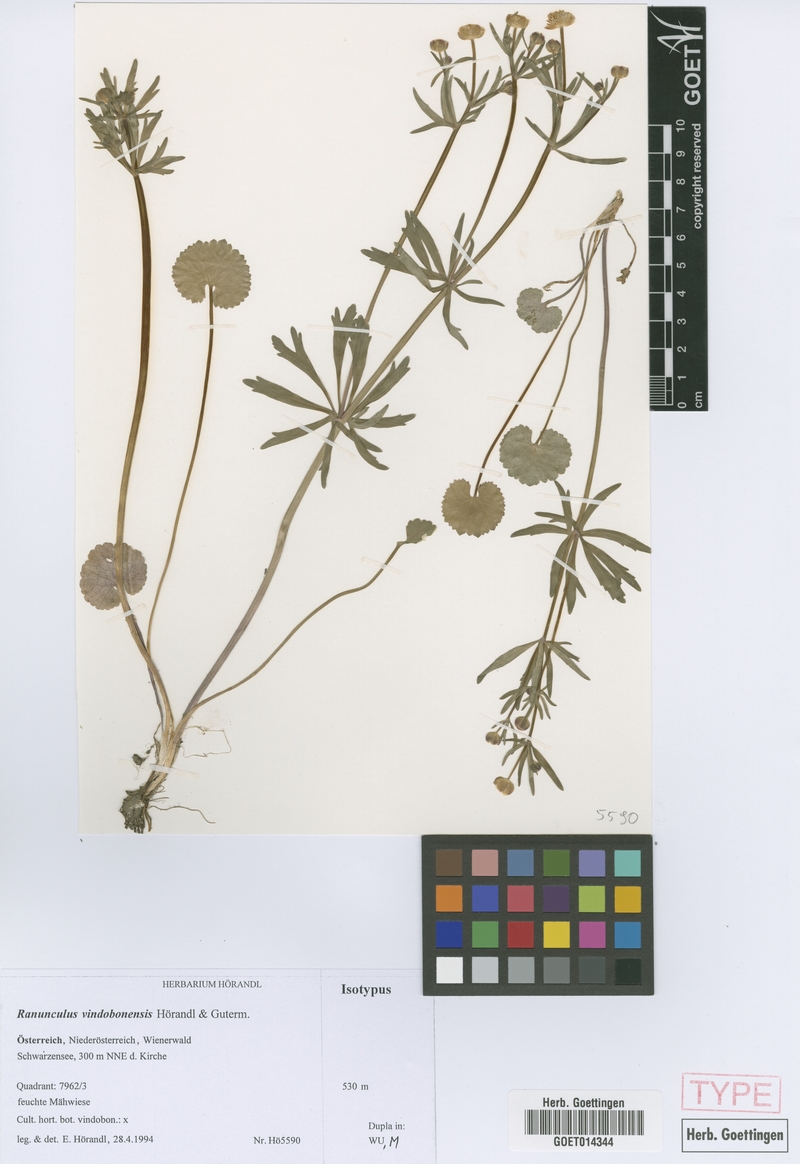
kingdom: Plantae
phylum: Tracheophyta
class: Magnoliopsida
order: Ranunculales
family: Ranunculaceae
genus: Ranunculus
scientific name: Ranunculus vindobonensis
